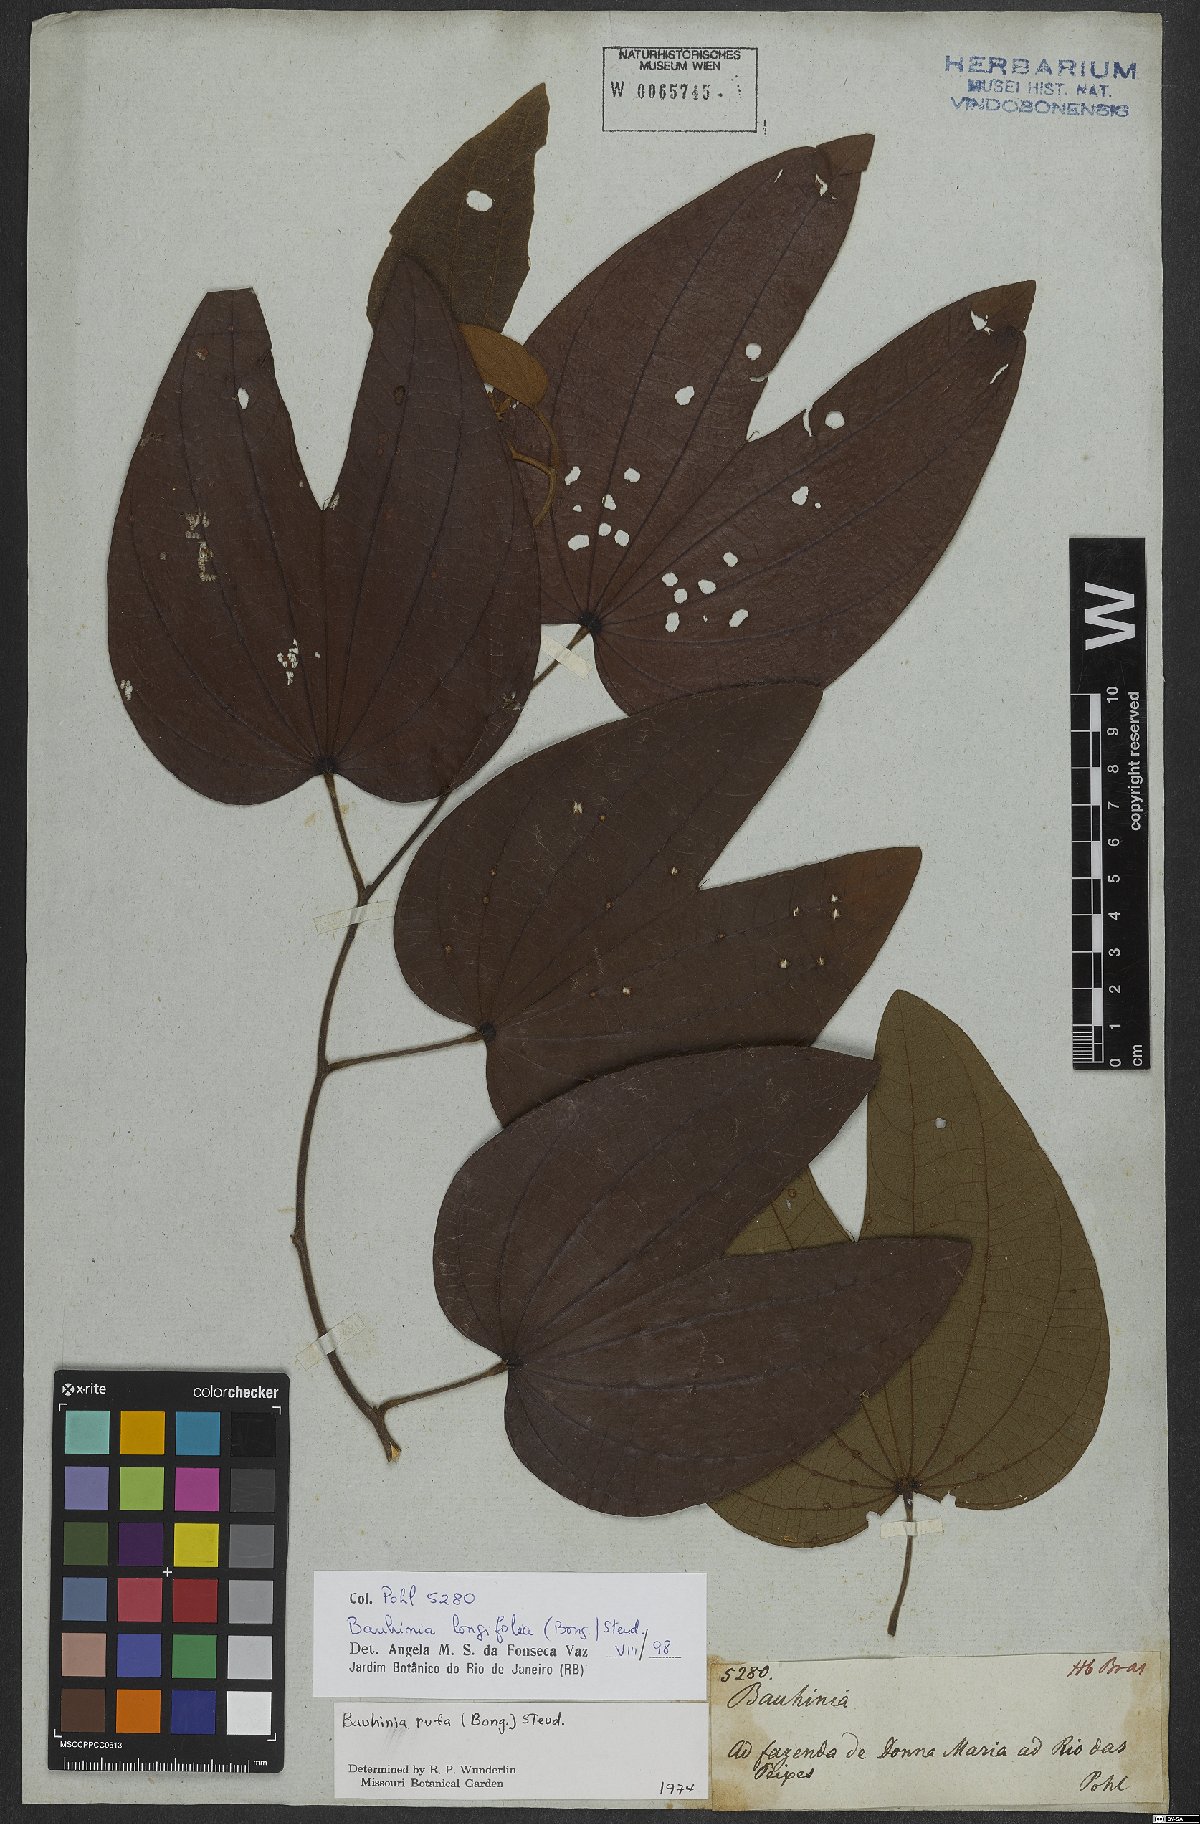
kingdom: Plantae
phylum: Tracheophyta
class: Magnoliopsida
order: Fabales
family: Fabaceae
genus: Bauhinia
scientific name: Bauhinia longifolia
